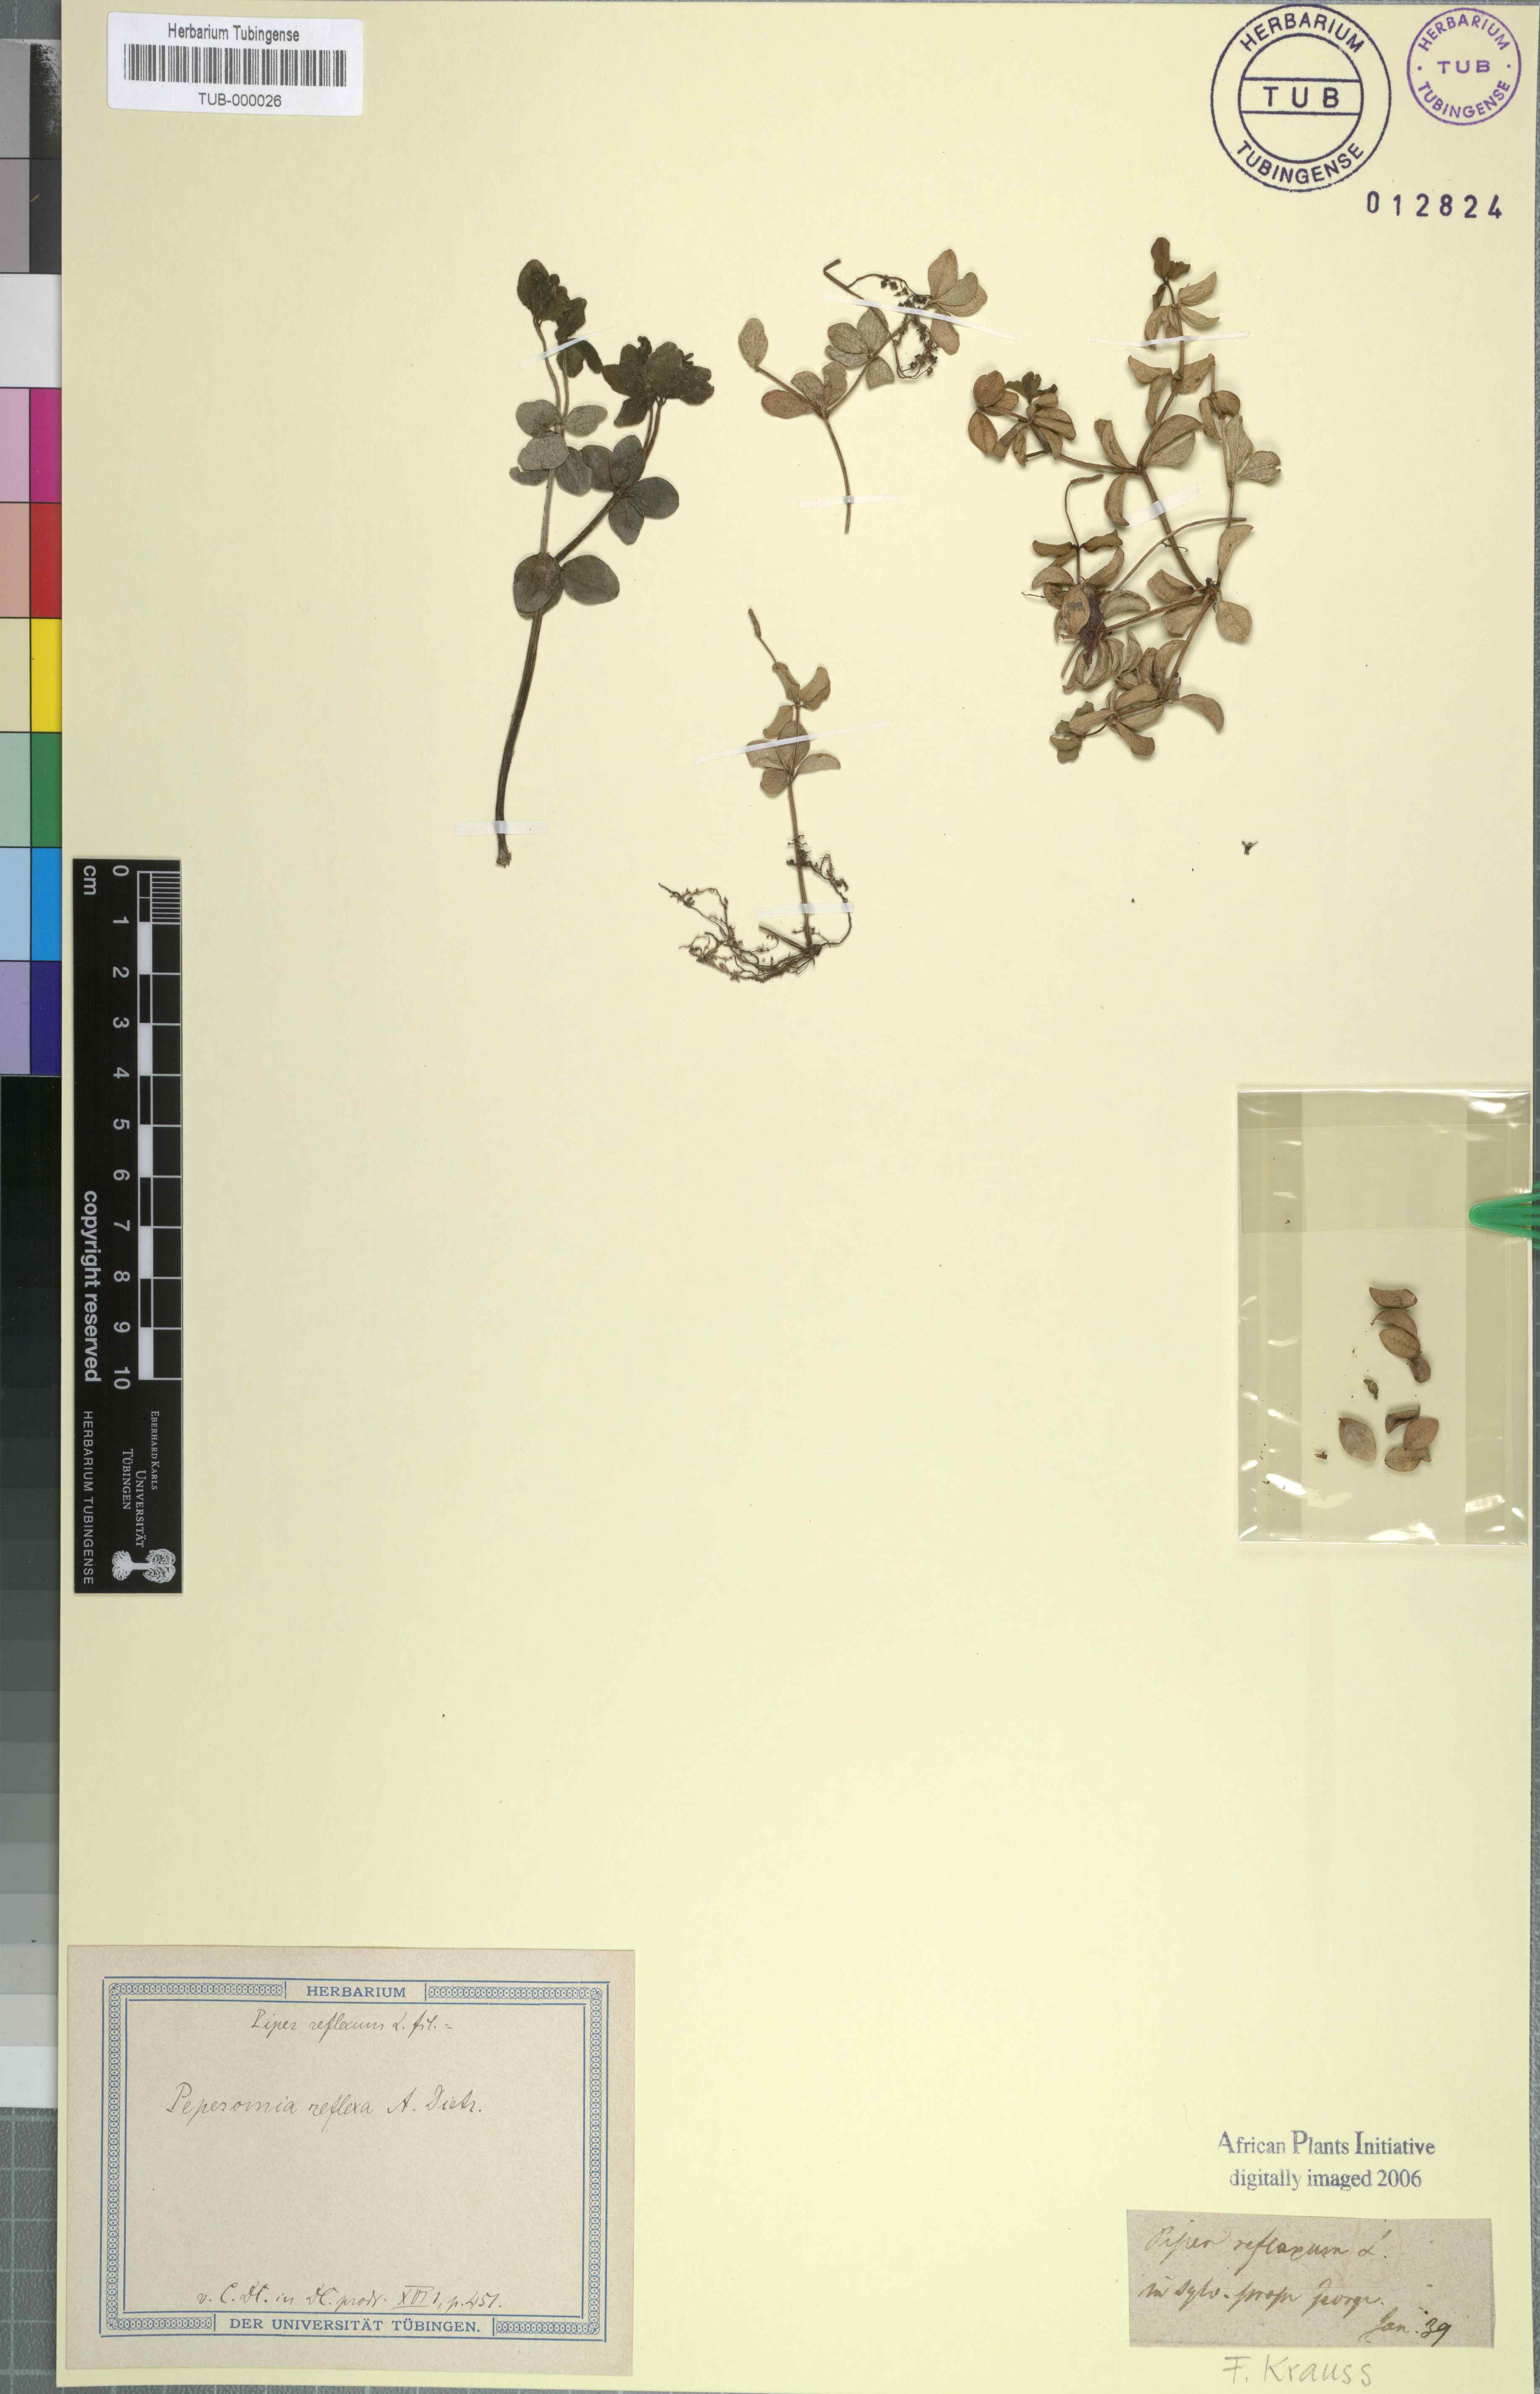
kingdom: Plantae
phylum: Tracheophyta
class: Magnoliopsida
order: Piperales
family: Piperaceae
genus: Peperomia
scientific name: Peperomia tetraphylla
